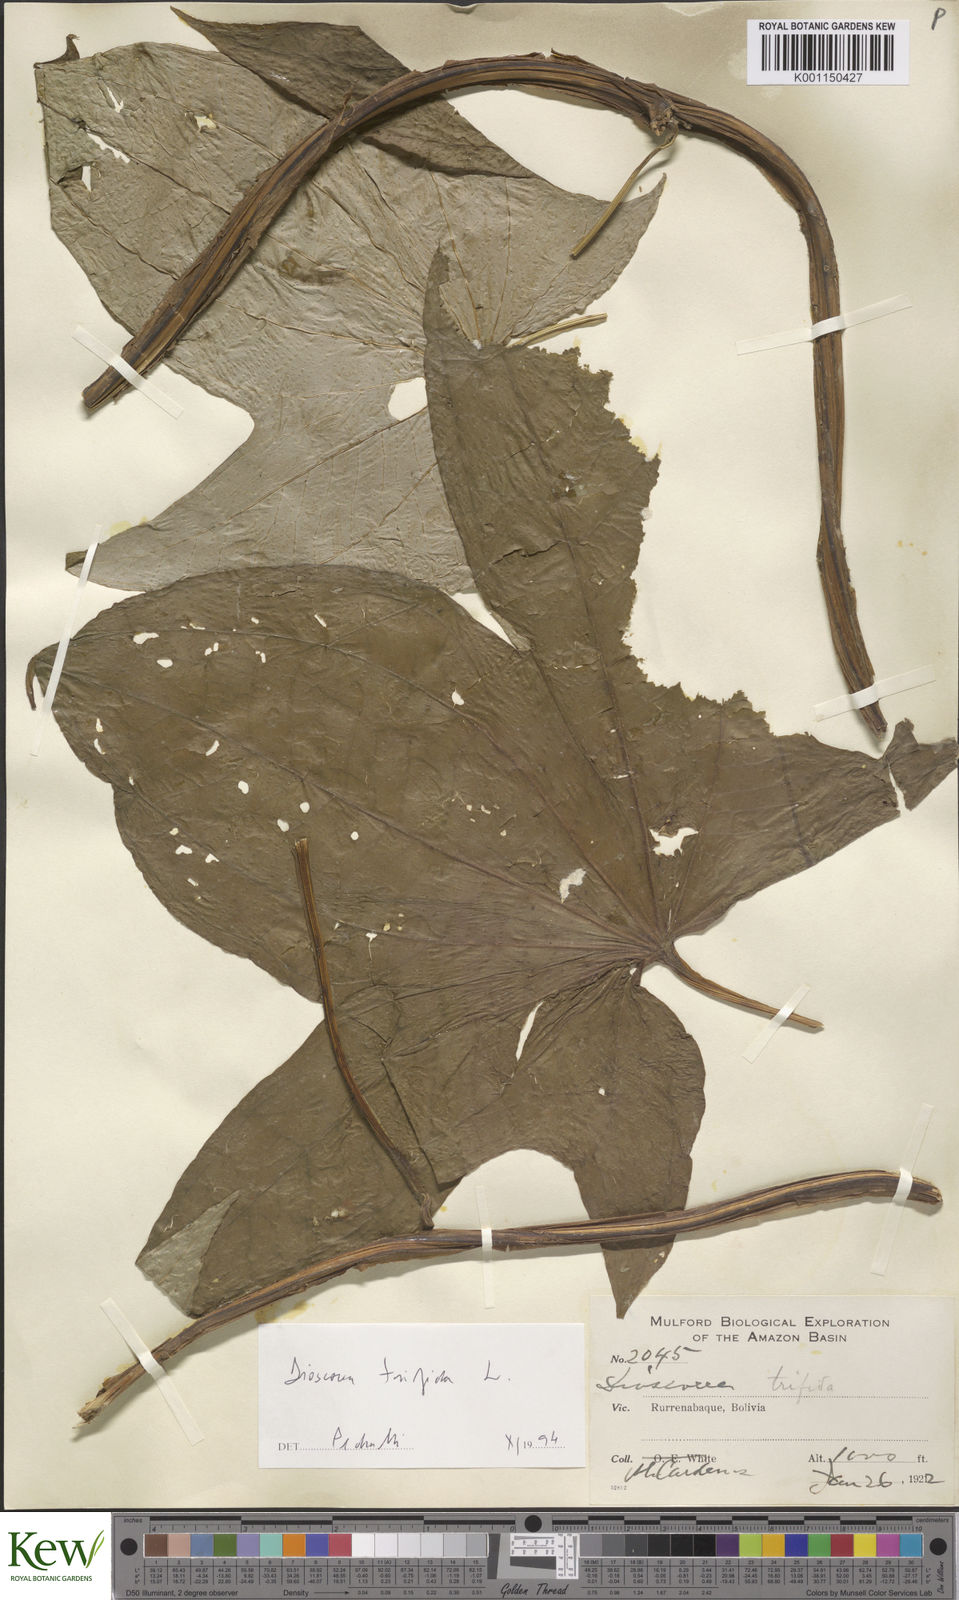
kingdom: Plantae
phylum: Tracheophyta
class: Liliopsida
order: Dioscoreales
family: Dioscoreaceae
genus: Dioscorea
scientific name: Dioscorea trifida
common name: Cush-cush
